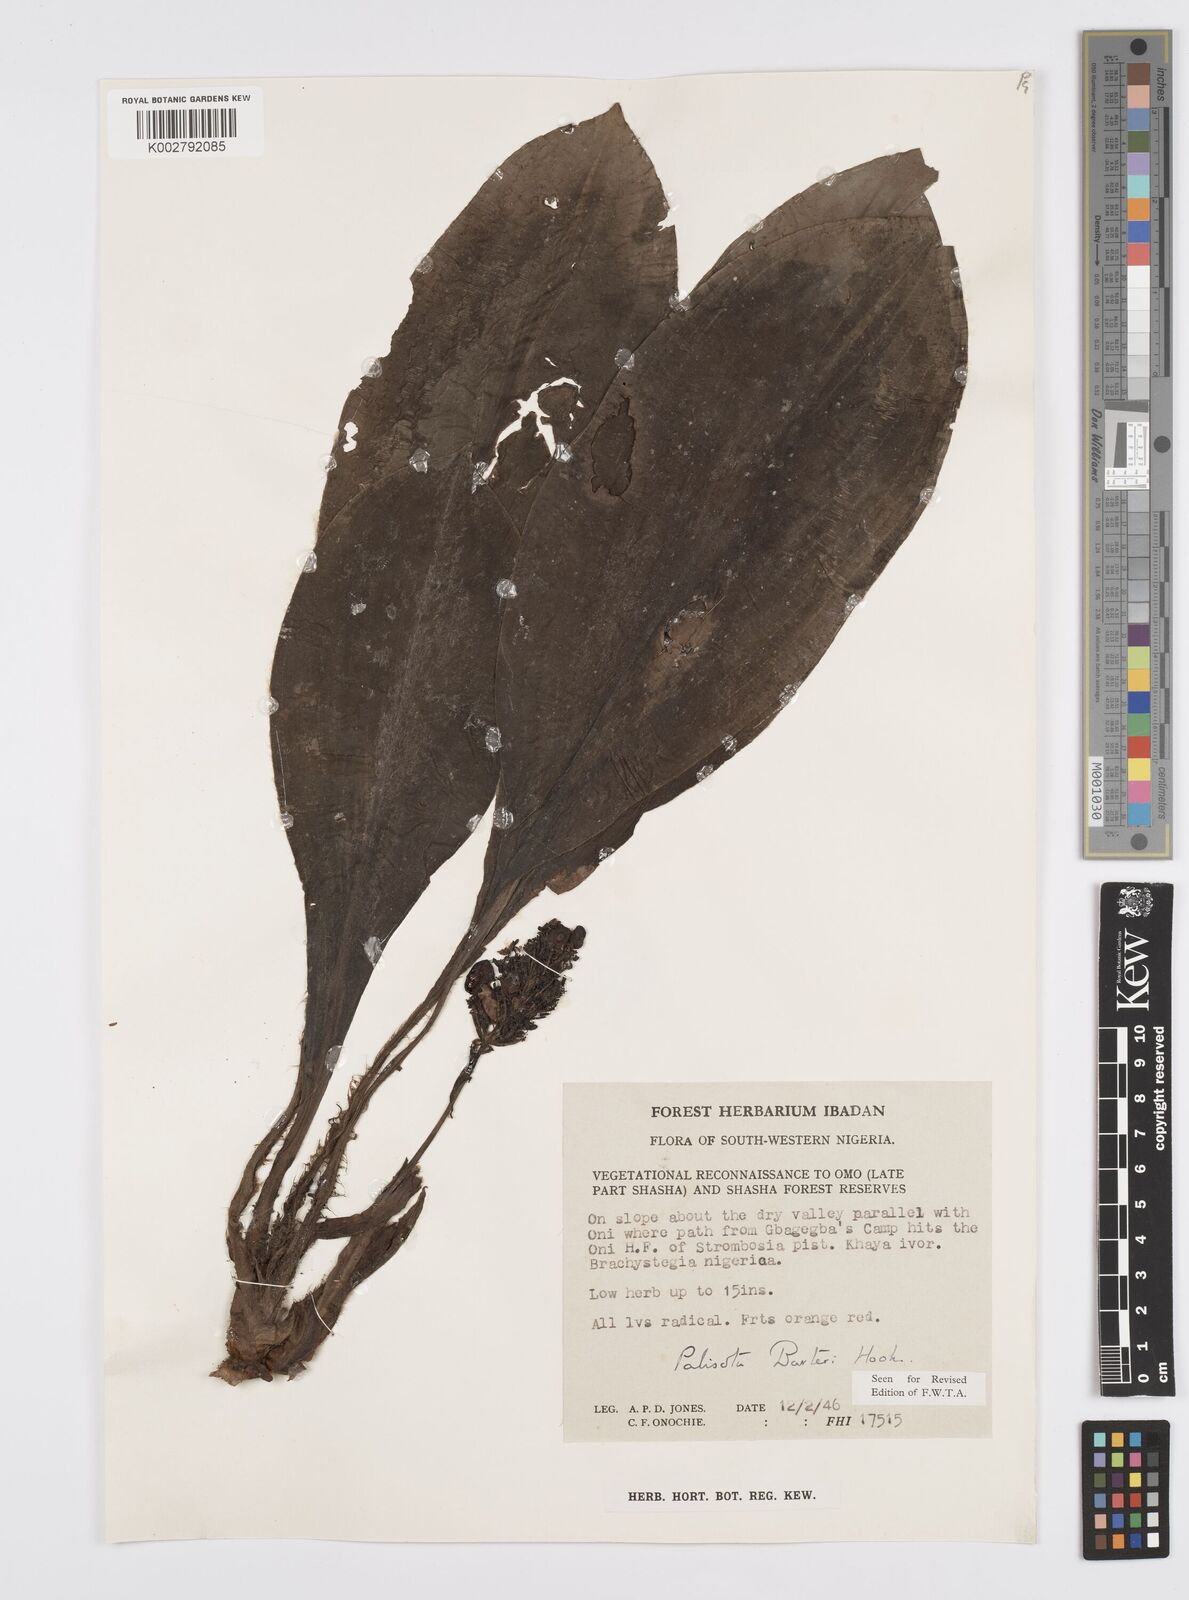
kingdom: Plantae
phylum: Tracheophyta
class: Liliopsida
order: Commelinales
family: Commelinaceae
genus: Palisota
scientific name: Palisota barteri
